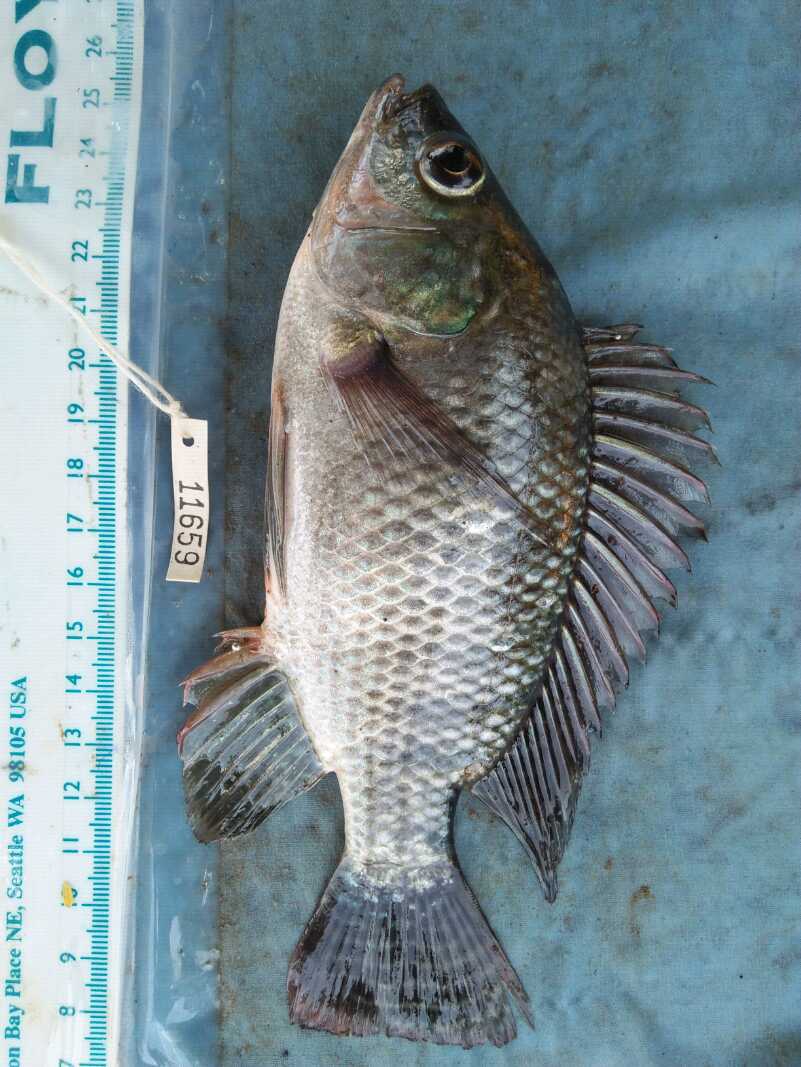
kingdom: Animalia
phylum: Chordata
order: Perciformes
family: Cichlidae
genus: Oreochromis
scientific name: Oreochromis niloticus
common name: Nile tilapia
